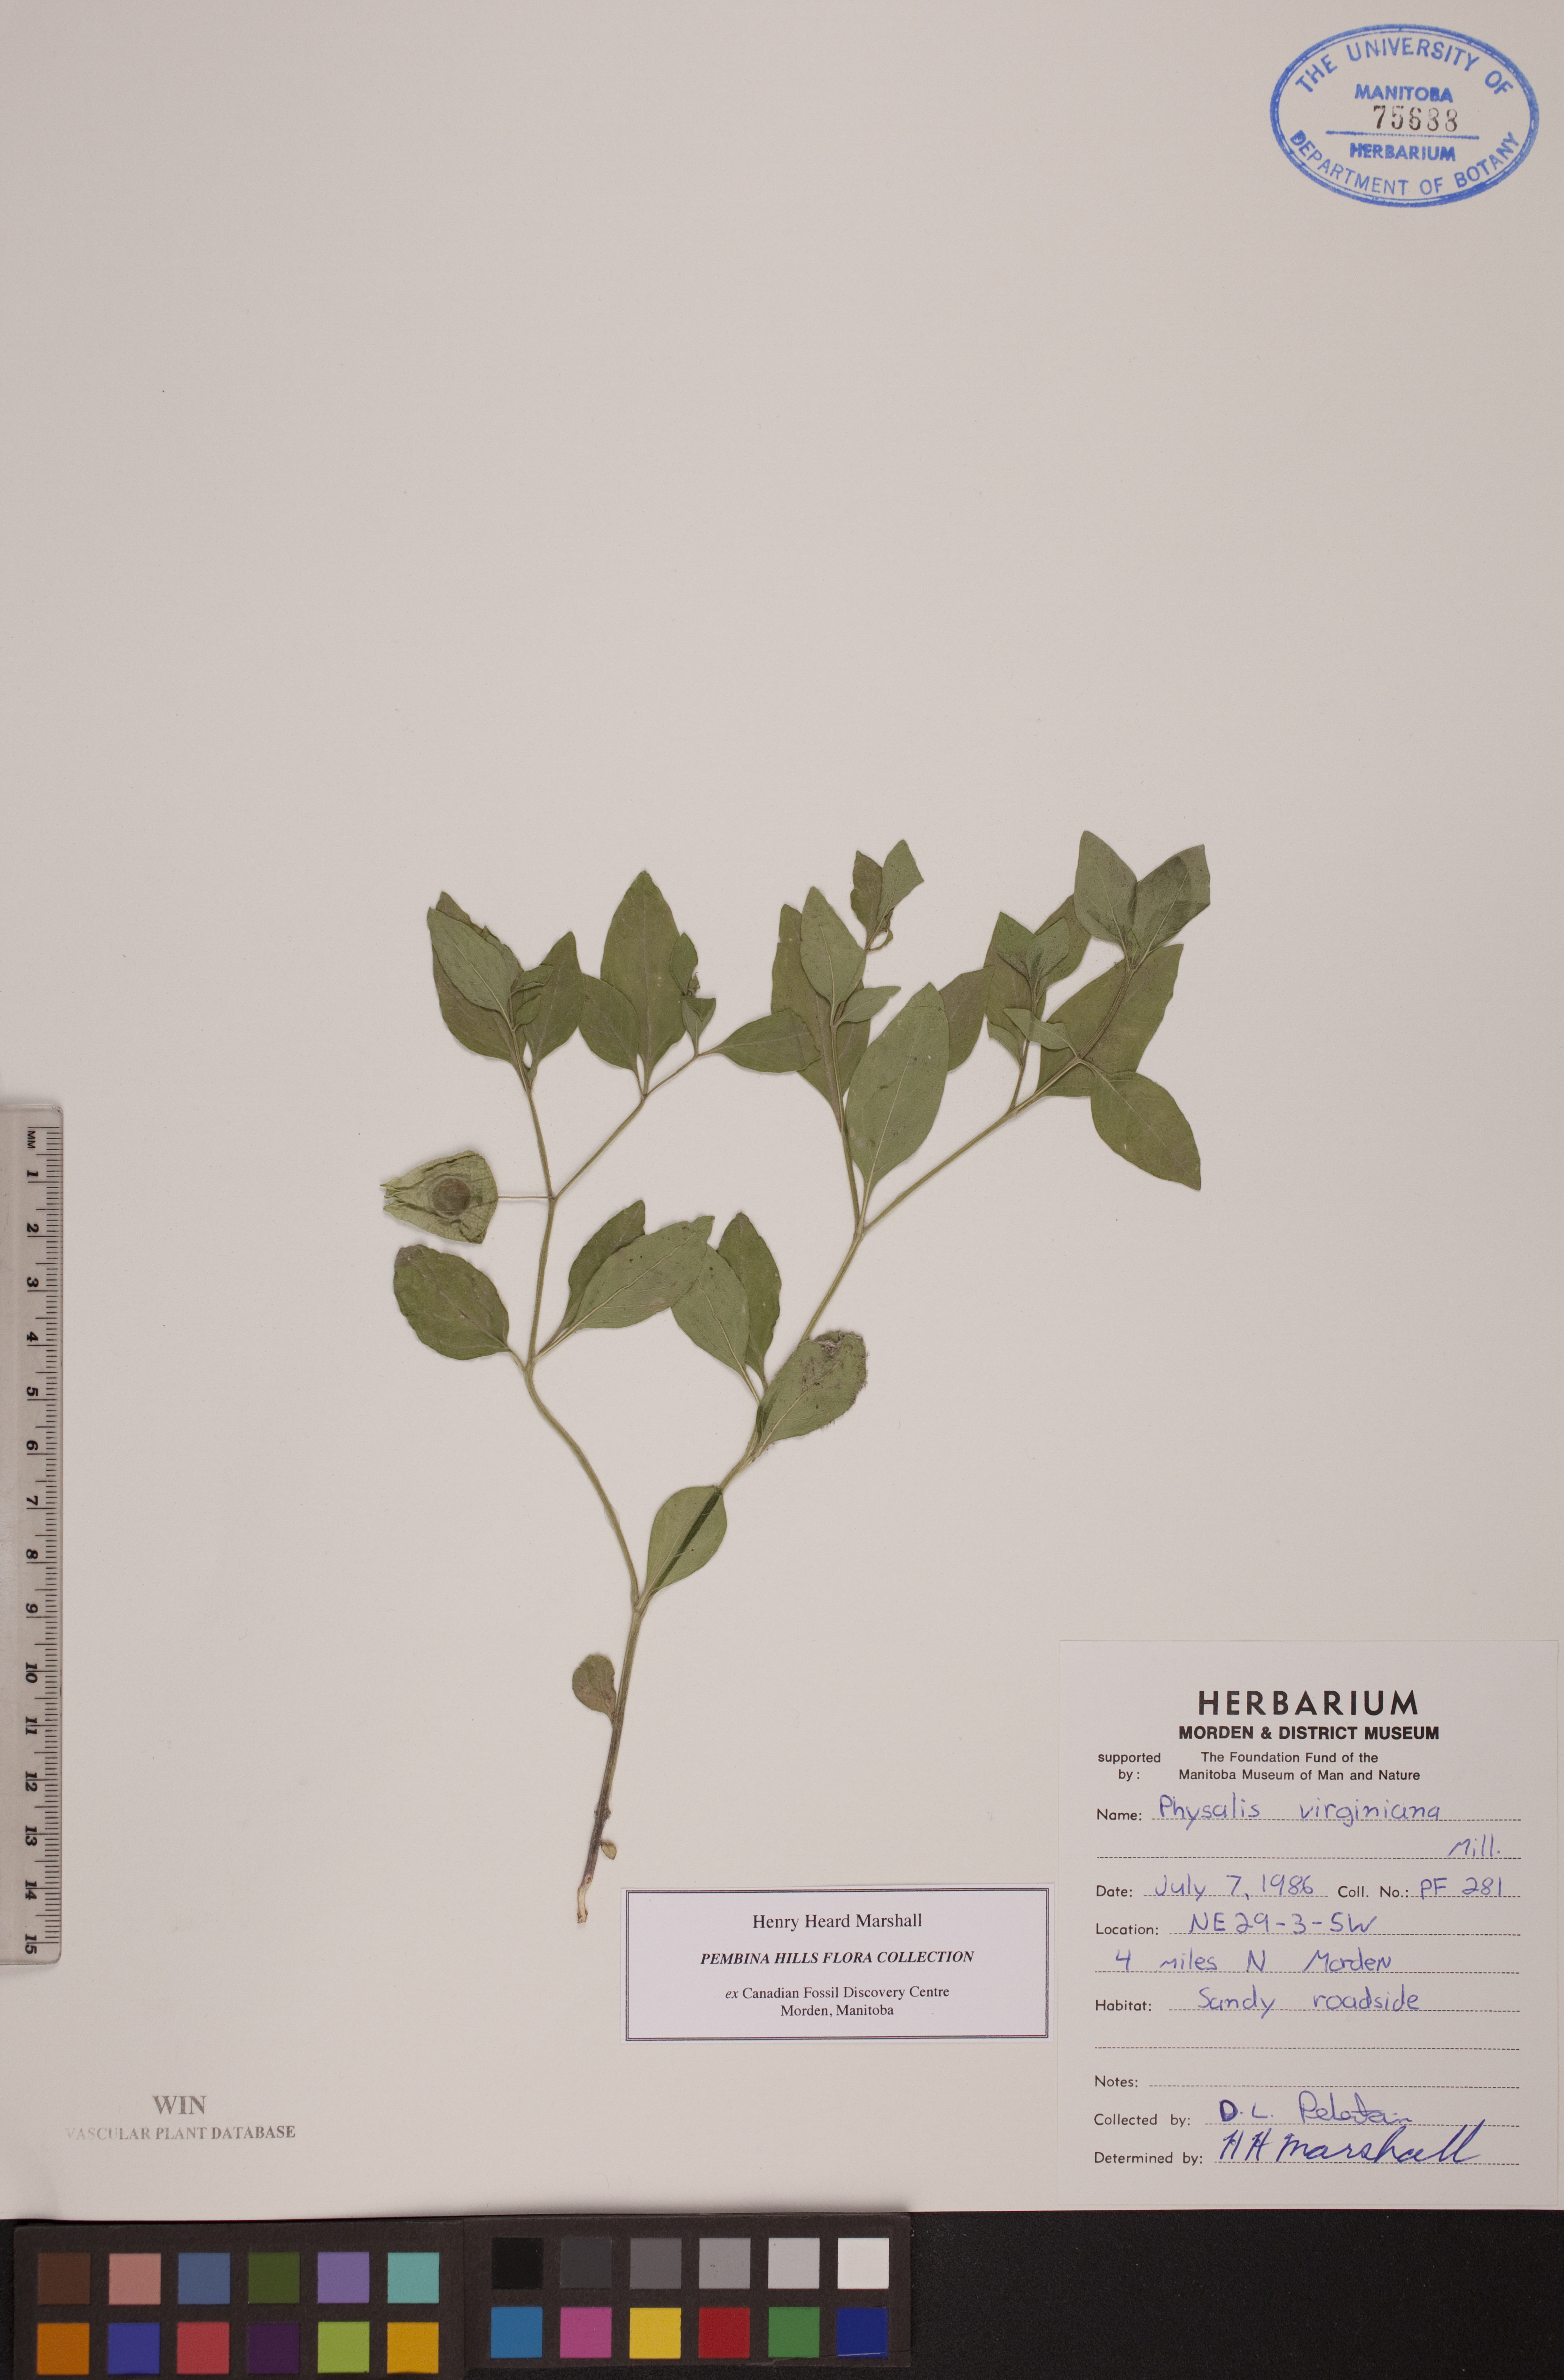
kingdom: Plantae
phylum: Tracheophyta
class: Magnoliopsida
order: Solanales
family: Solanaceae
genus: Physalis
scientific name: Physalis virginiana
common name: Virginia ground-cherry
